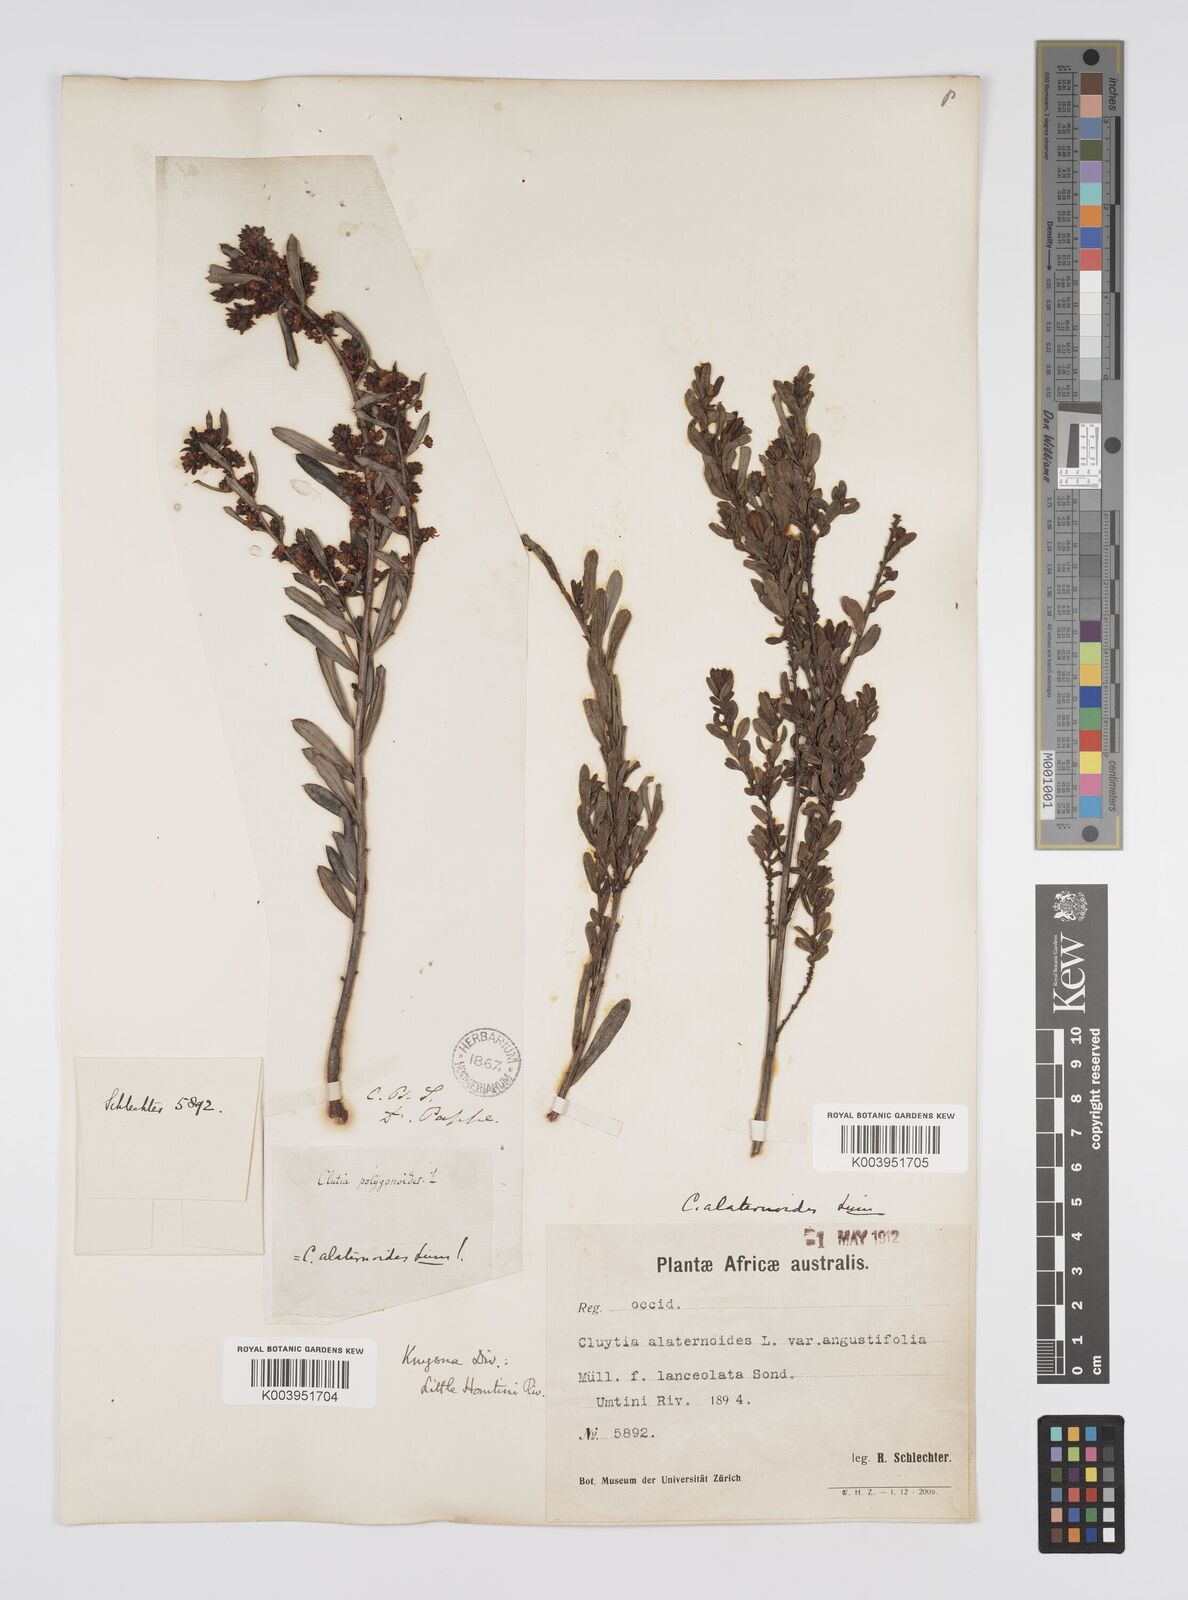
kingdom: Plantae
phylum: Tracheophyta
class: Magnoliopsida
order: Malpighiales
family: Peraceae
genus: Clutia
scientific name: Clutia alaternoides
